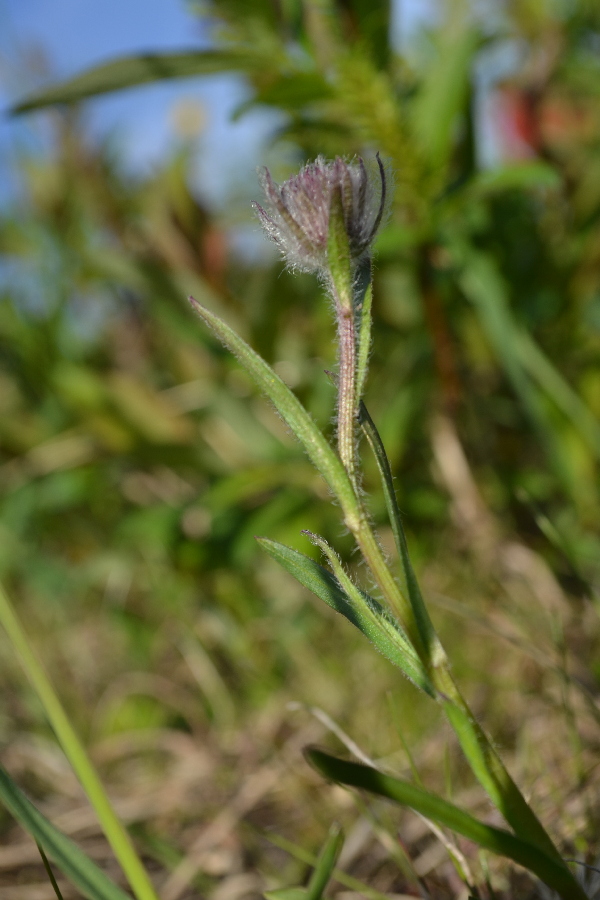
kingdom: Plantae
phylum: Tracheophyta
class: Magnoliopsida
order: Asterales
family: Asteraceae
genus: Erigeron
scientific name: Erigeron eriocephalus
